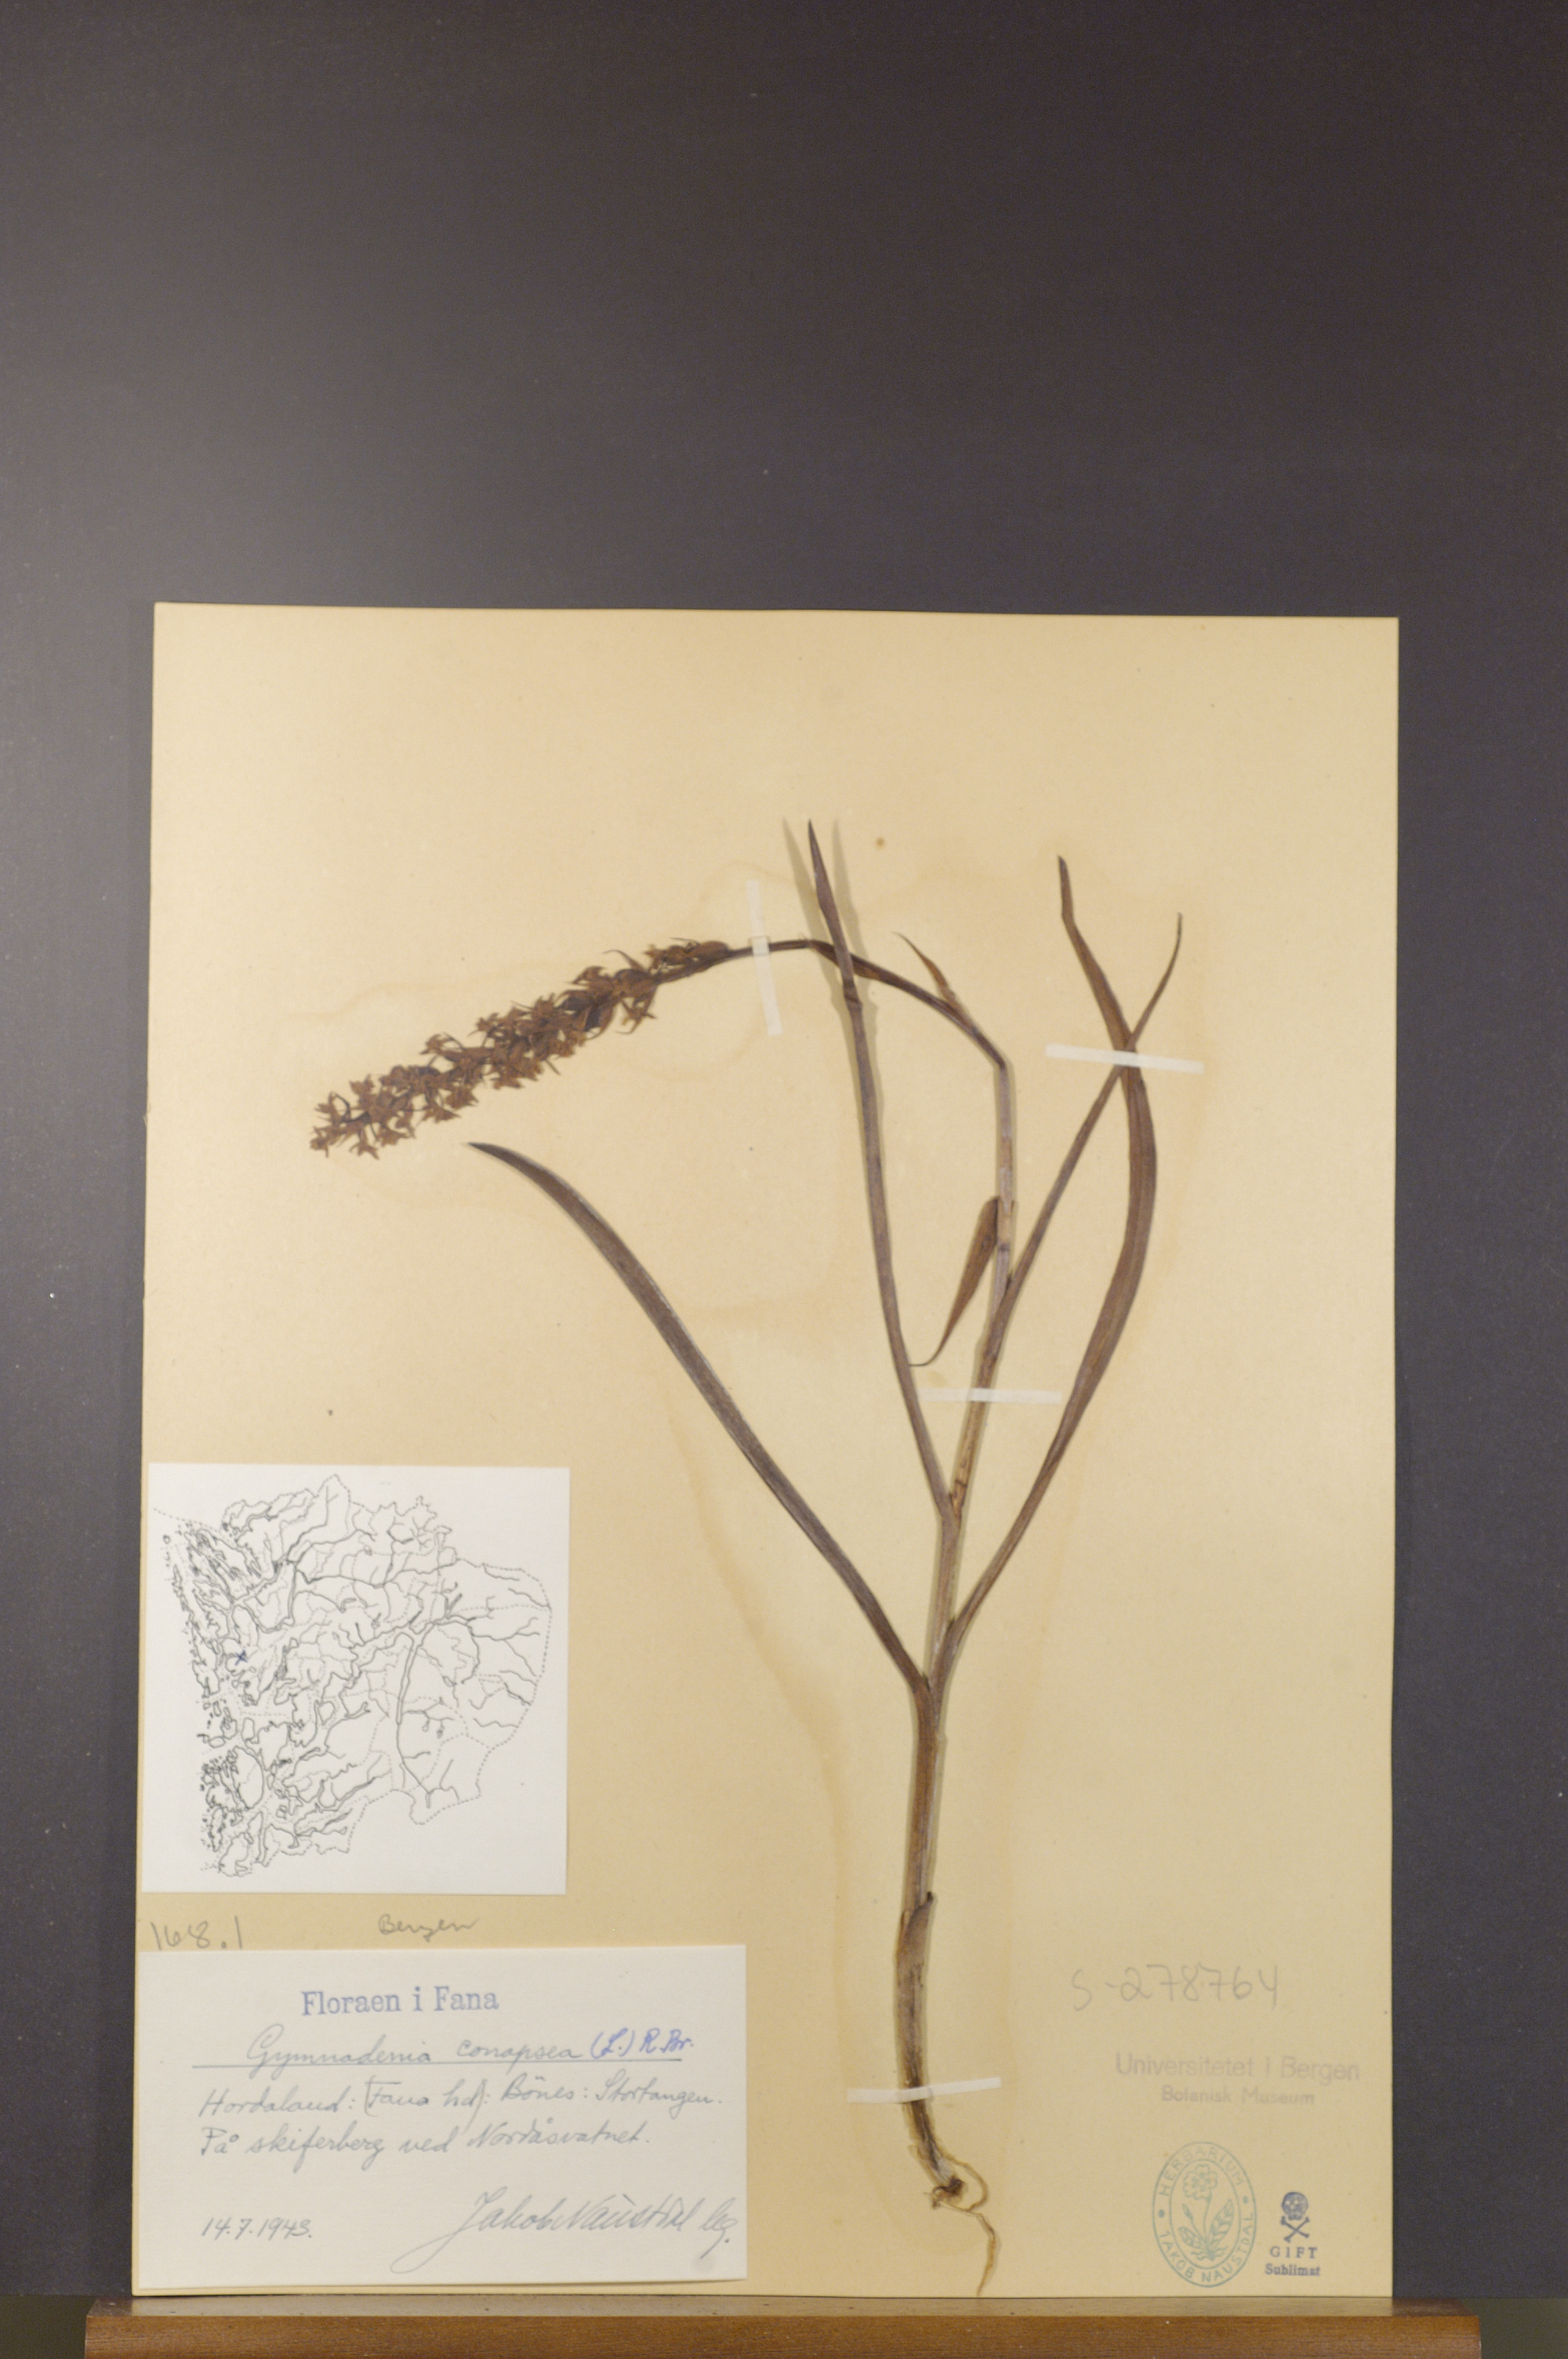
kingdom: Plantae
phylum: Tracheophyta
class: Liliopsida
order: Asparagales
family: Orchidaceae
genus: Gymnadenia
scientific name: Gymnadenia conopsea
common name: Fragrant orchid
